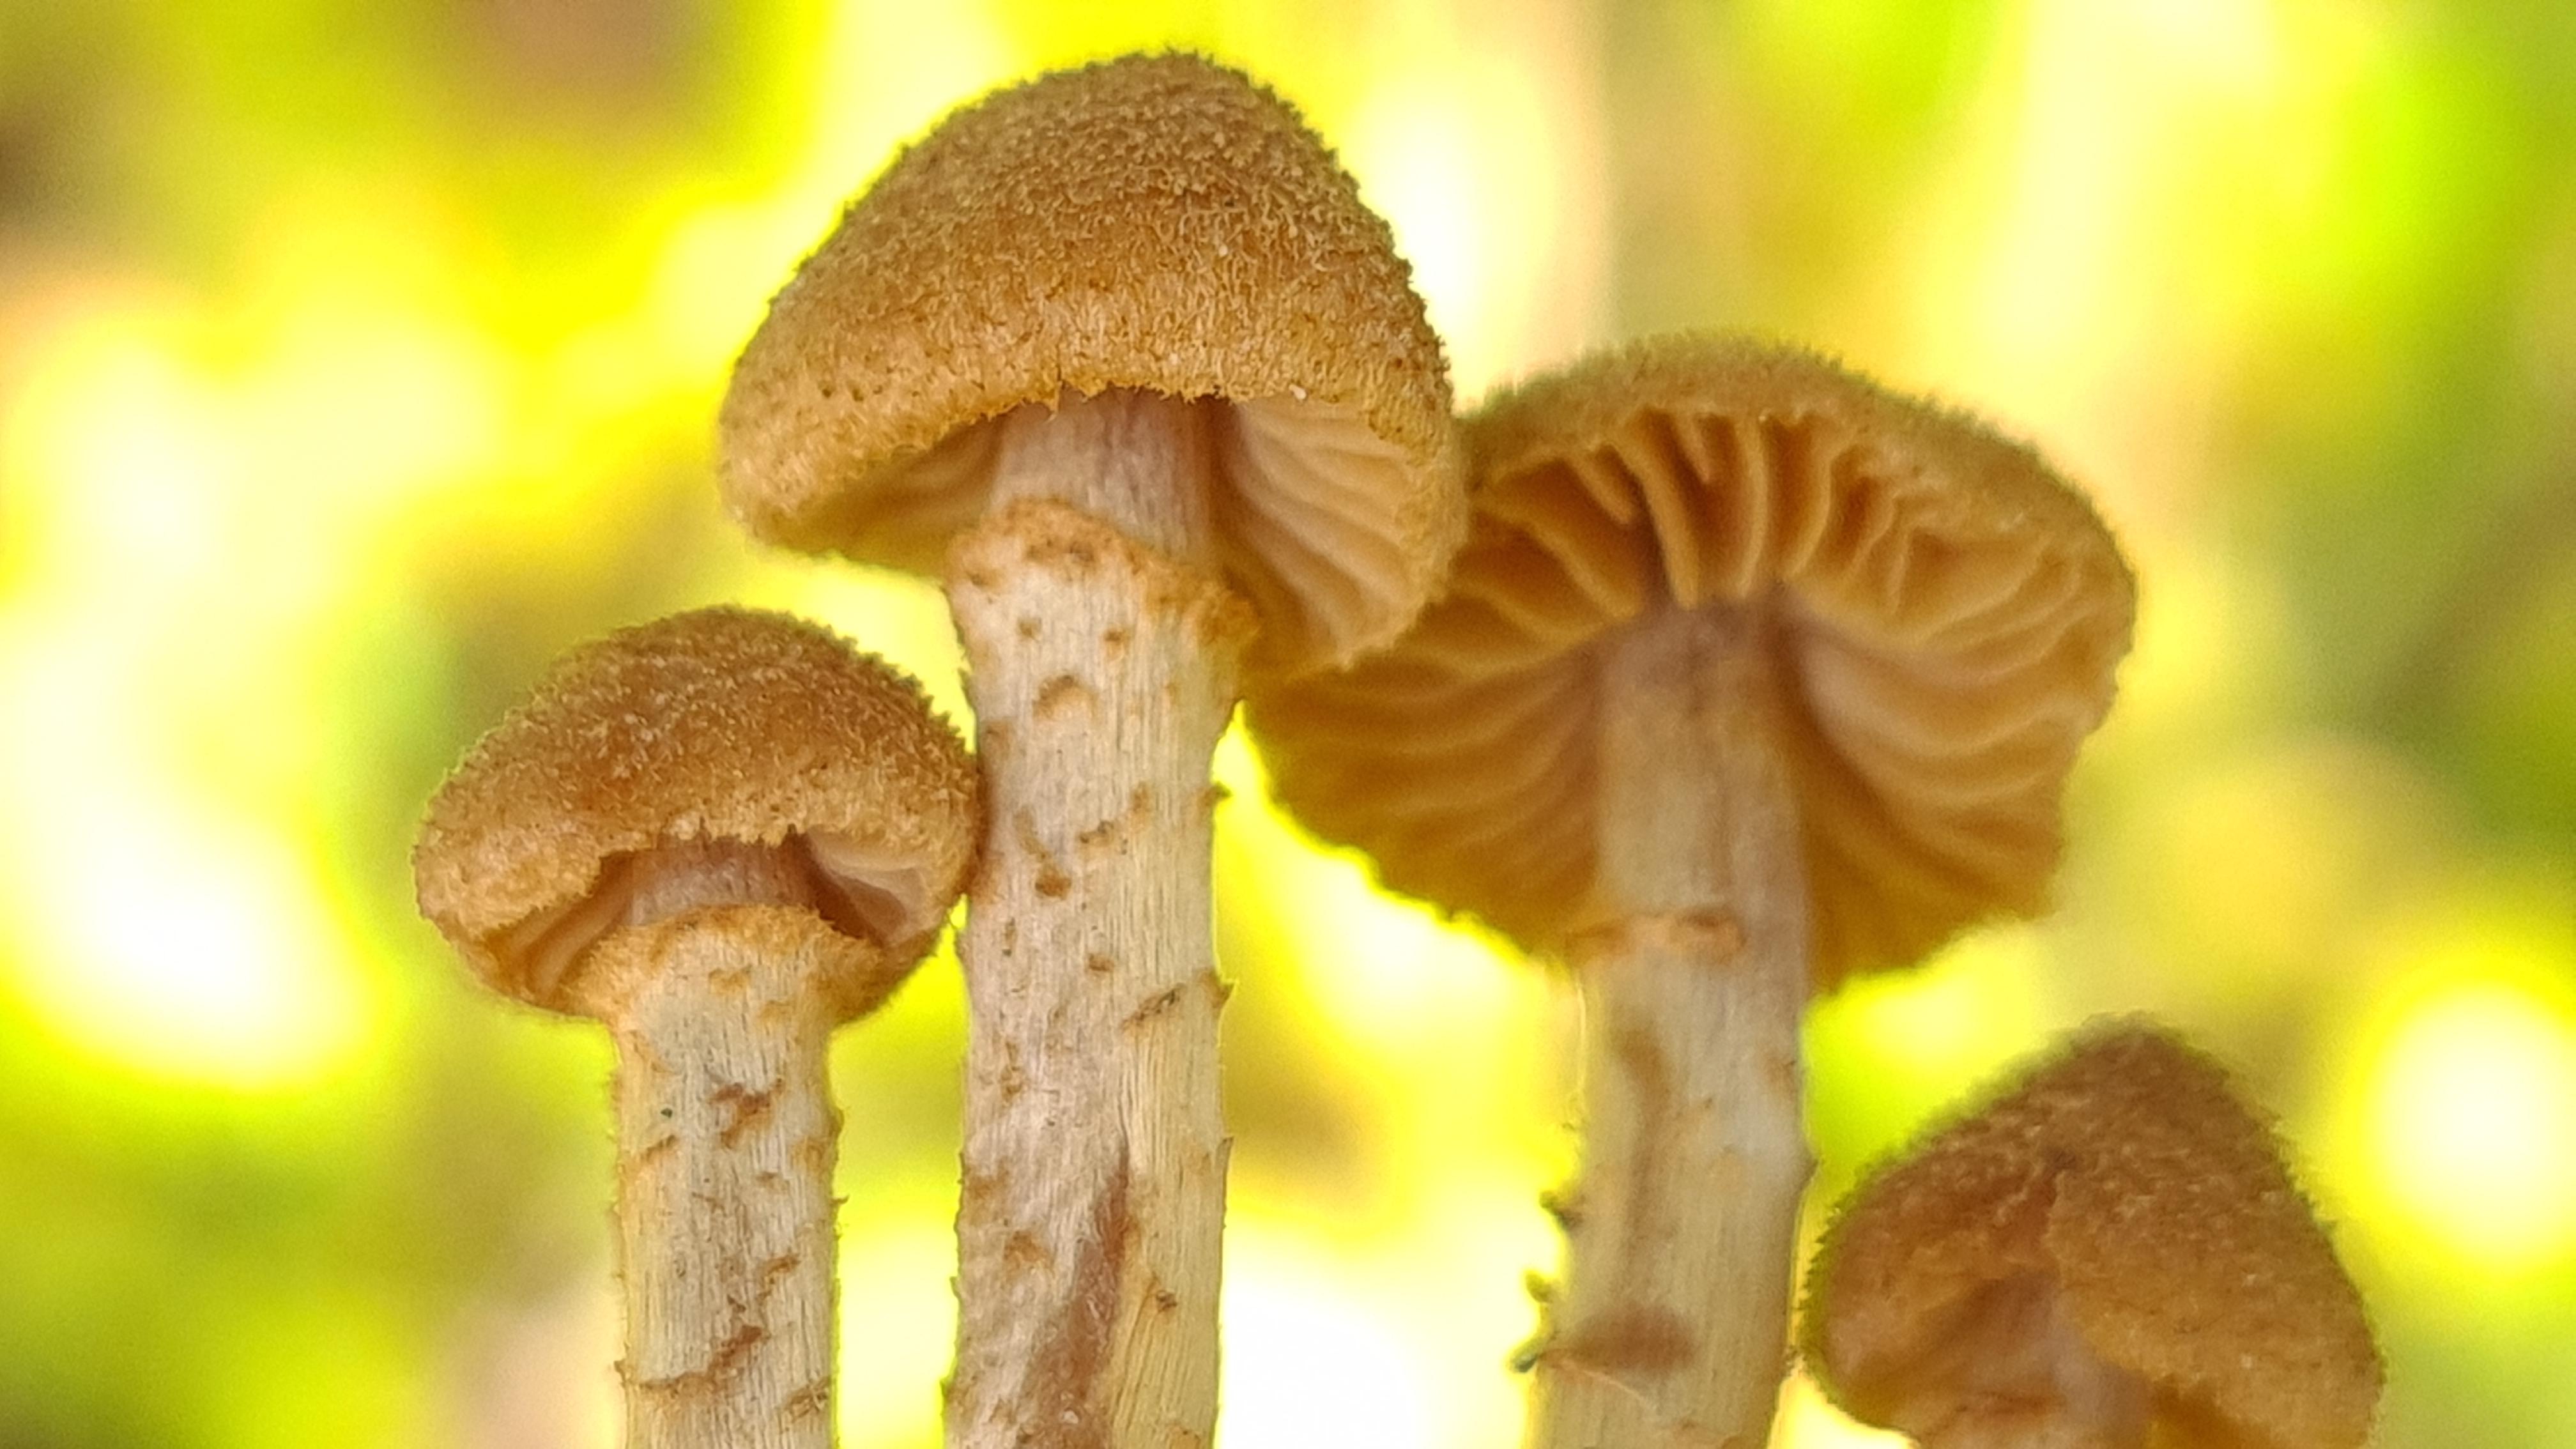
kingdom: Fungi
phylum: Basidiomycota
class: Agaricomycetes
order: Agaricales
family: Tricholomataceae
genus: Cystoderma
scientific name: Cystoderma
